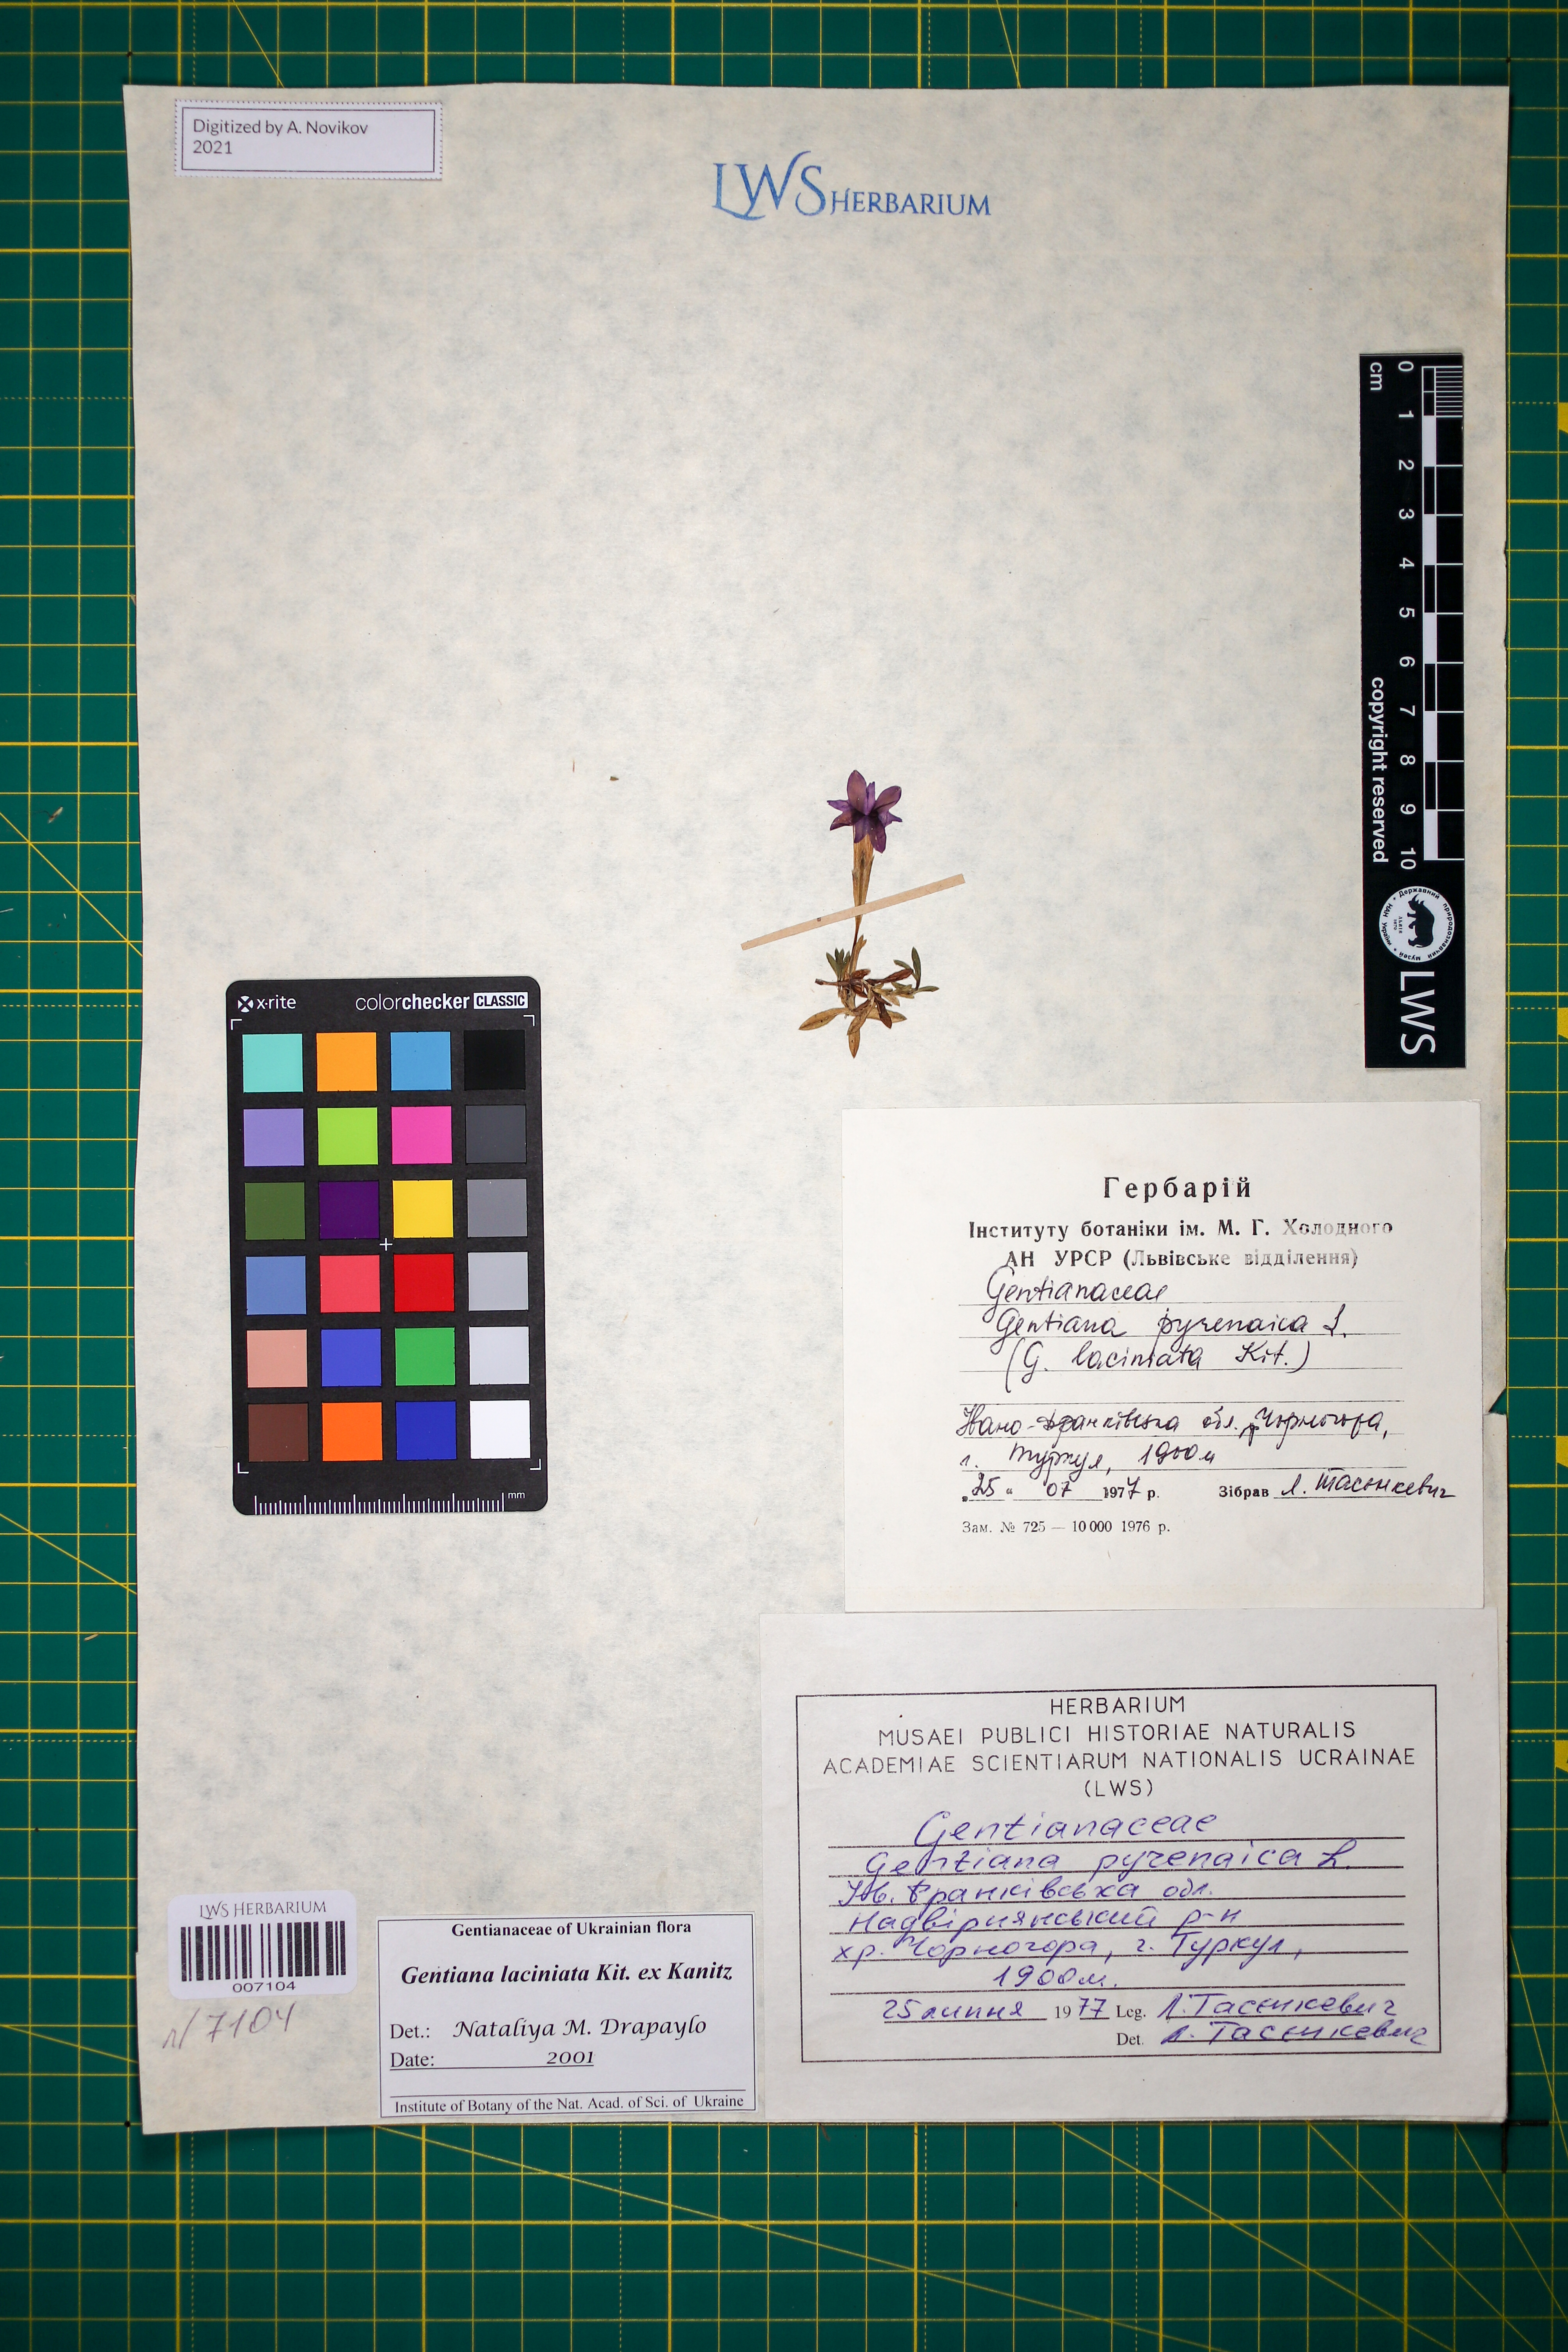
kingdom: Plantae
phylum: Tracheophyta
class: Magnoliopsida
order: Gentianales
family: Gentianaceae
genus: Gentiana
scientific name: Gentiana laciniata
